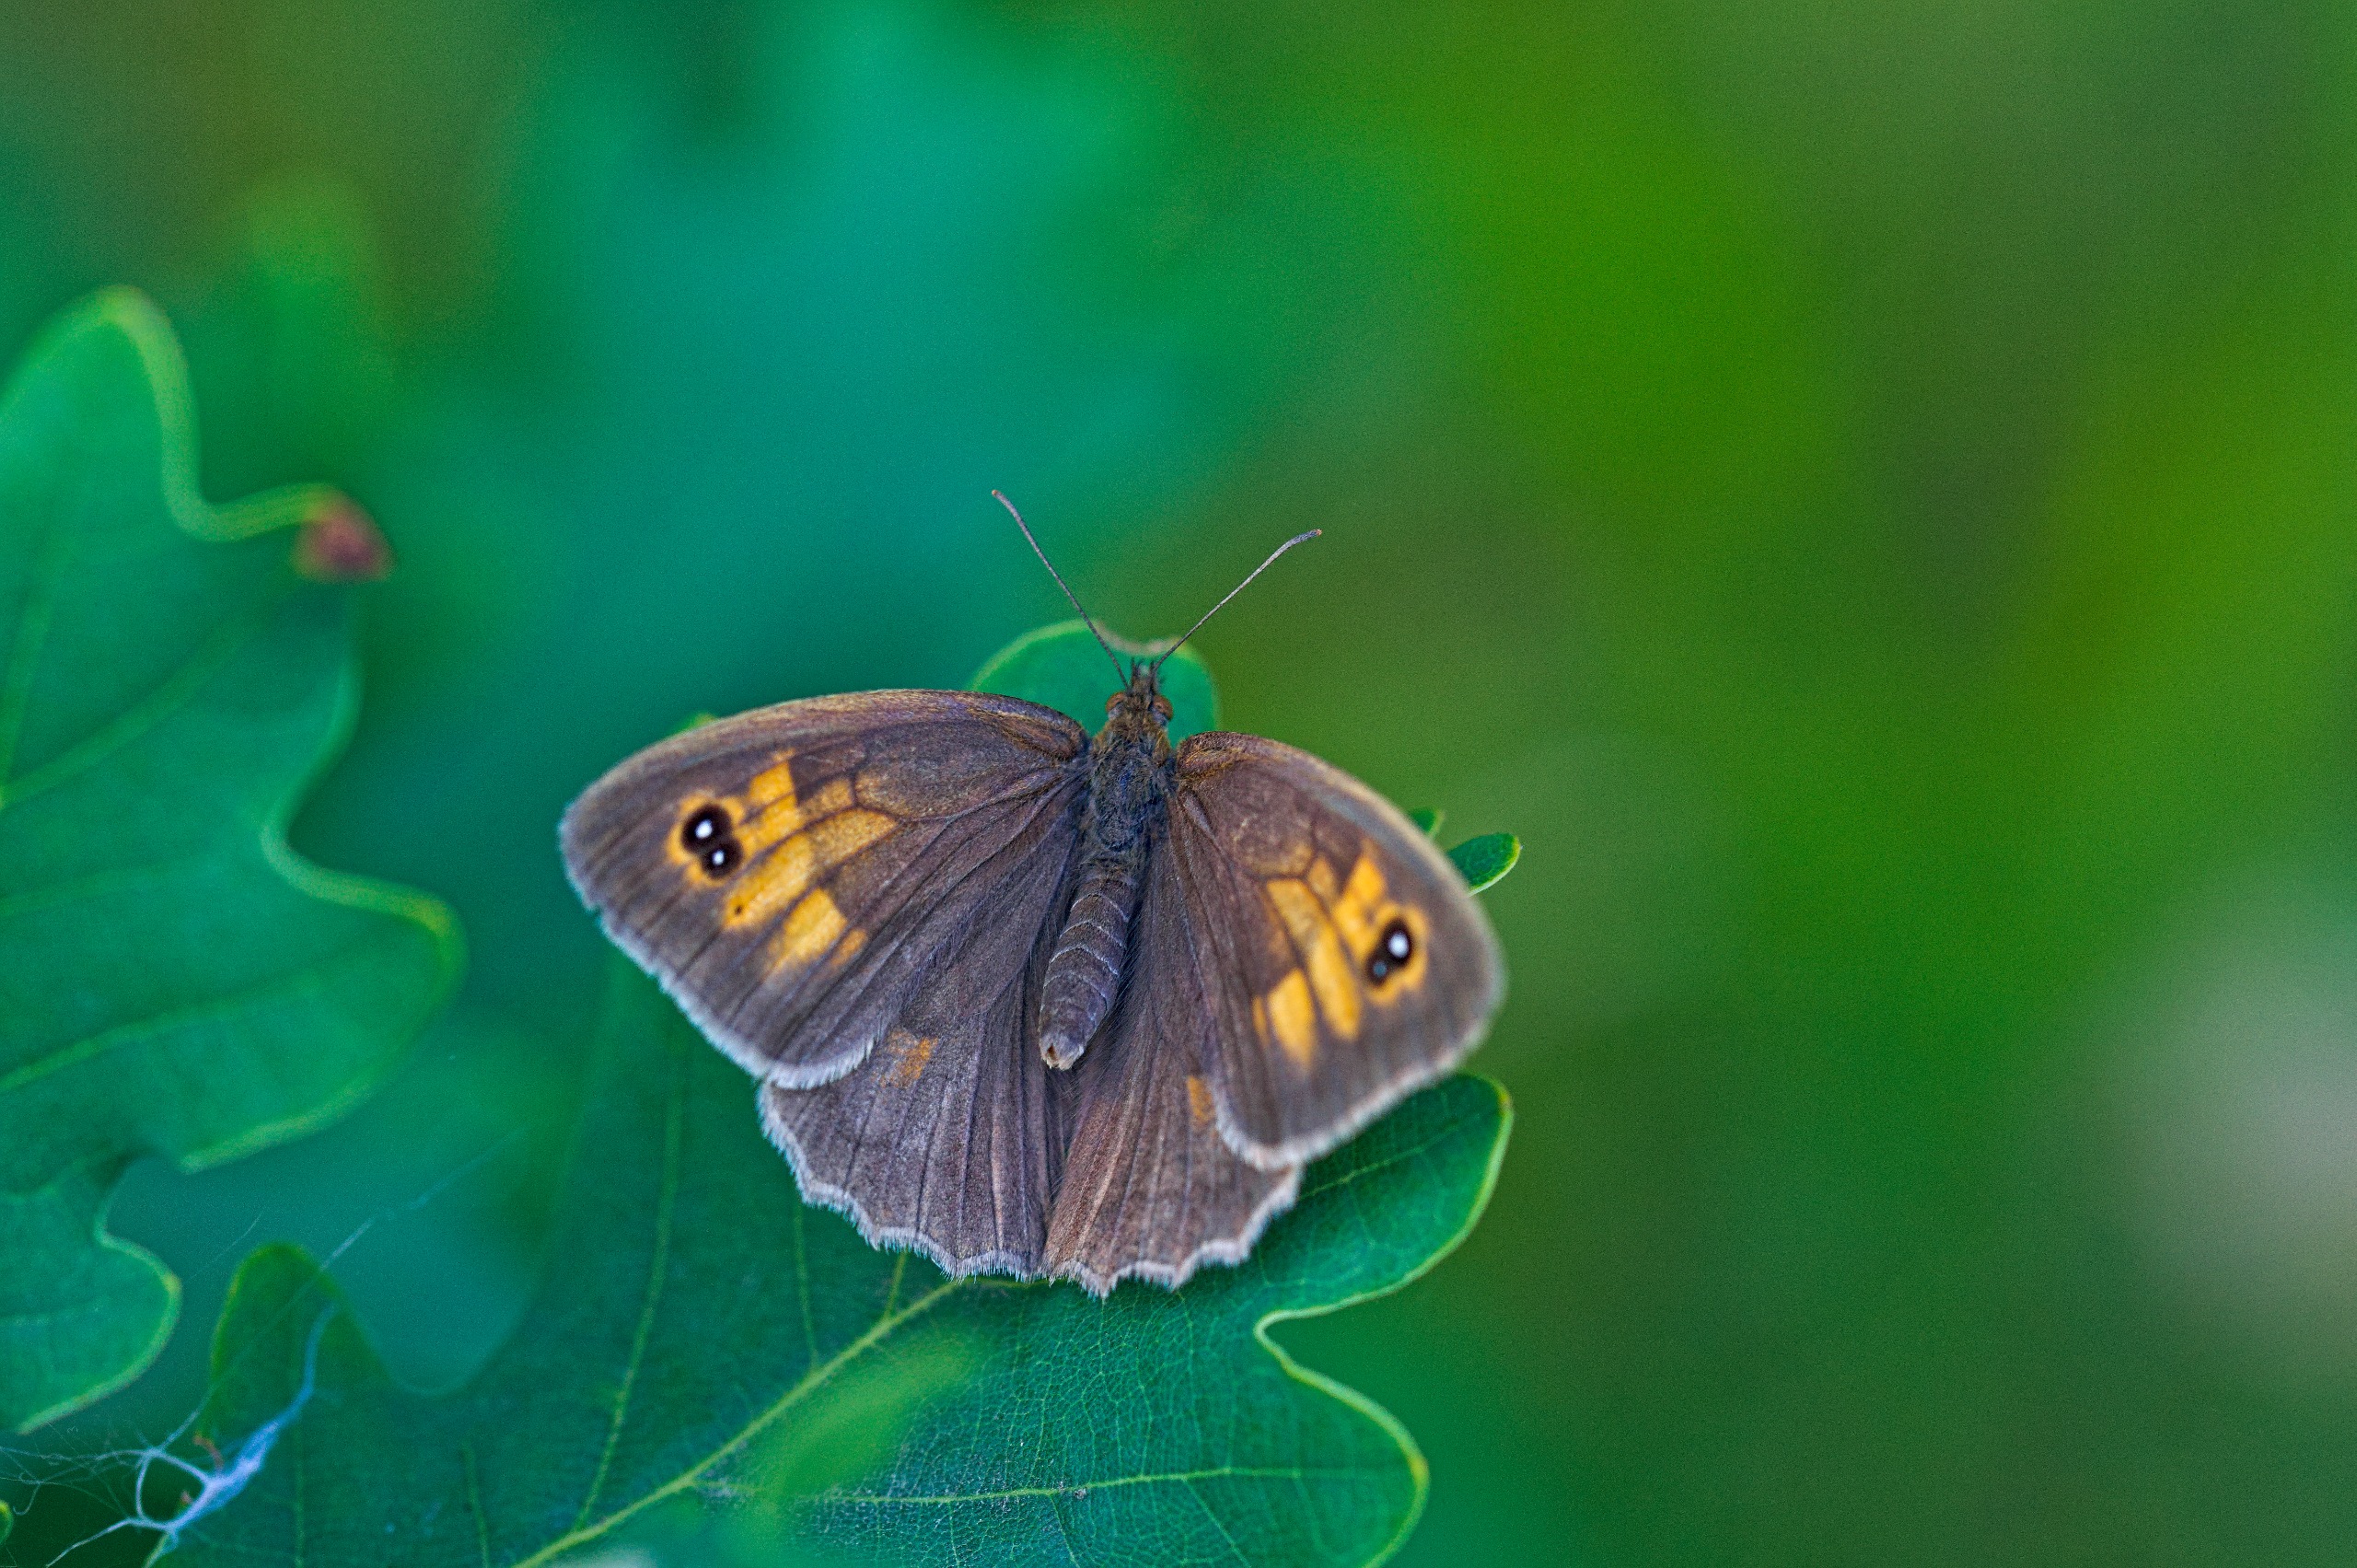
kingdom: Animalia
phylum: Arthropoda
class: Insecta
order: Lepidoptera
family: Nymphalidae
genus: Maniola
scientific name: Maniola jurtina
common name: Græsrandøje
